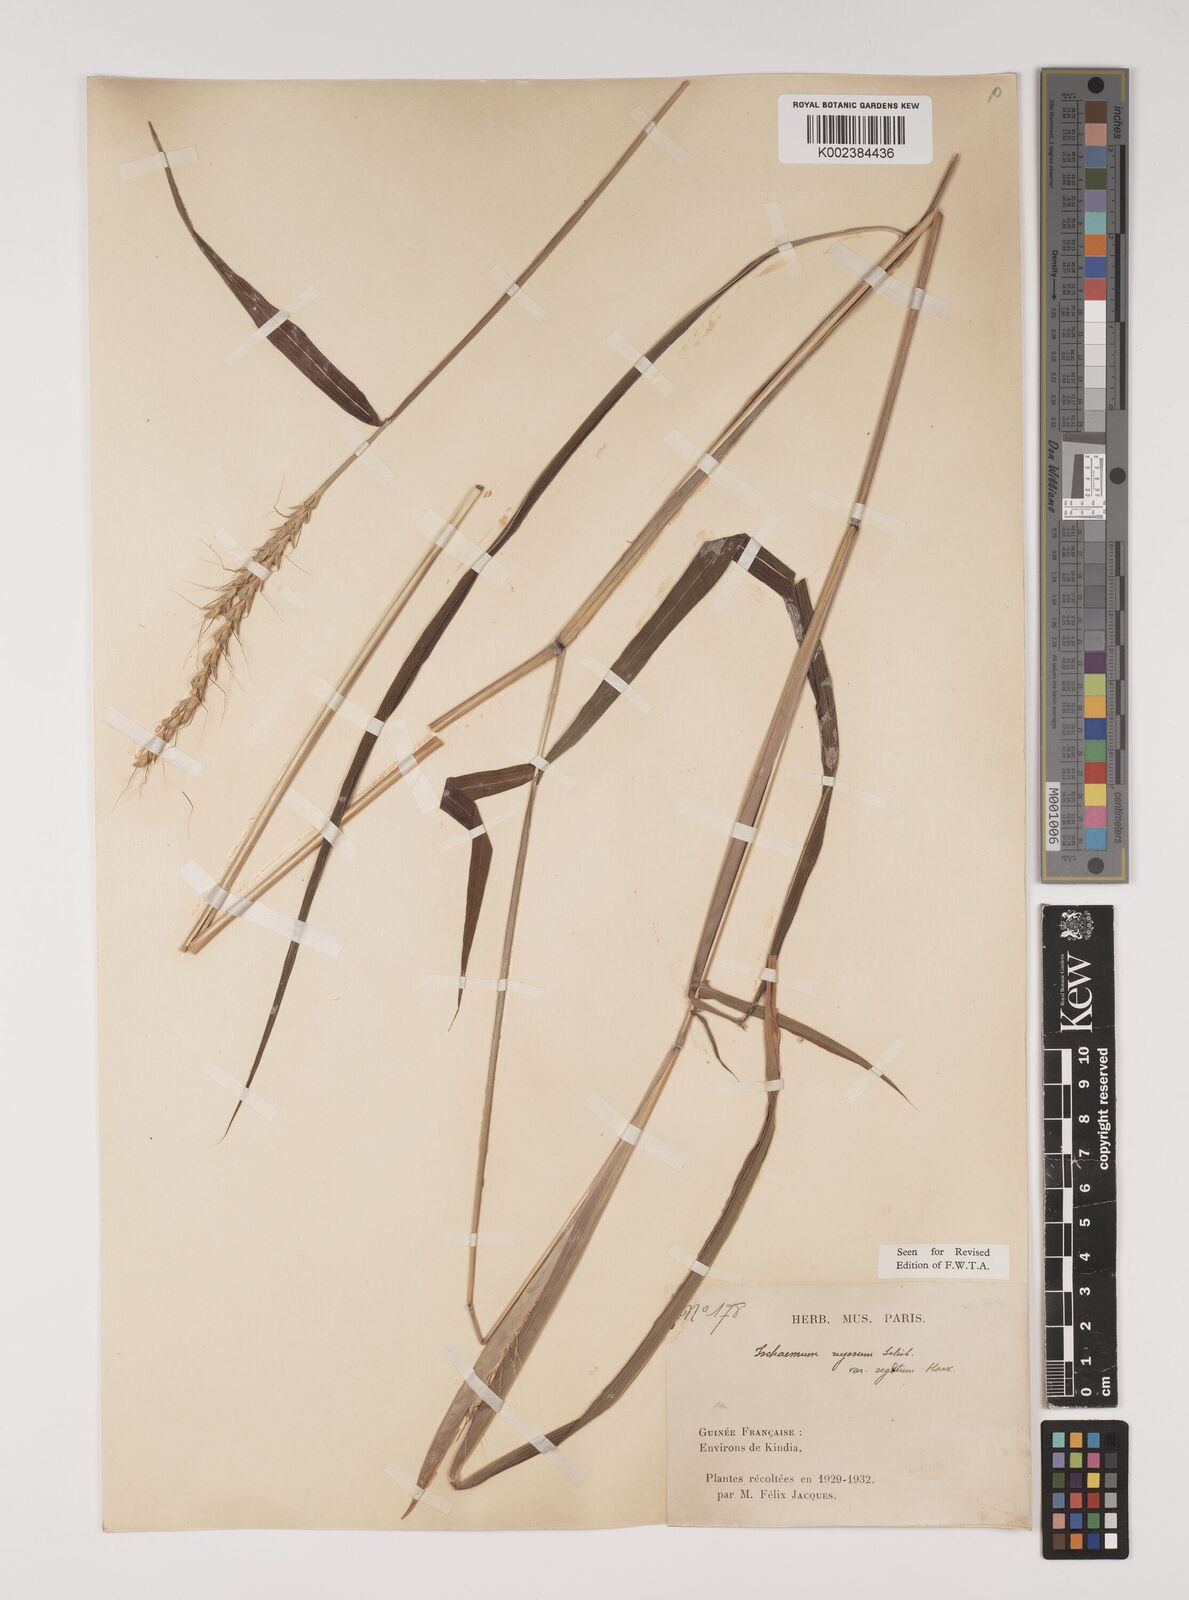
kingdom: Plantae
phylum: Tracheophyta
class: Liliopsida
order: Poales
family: Poaceae
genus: Ischaemum
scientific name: Ischaemum rugosum
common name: Saramatta grass
